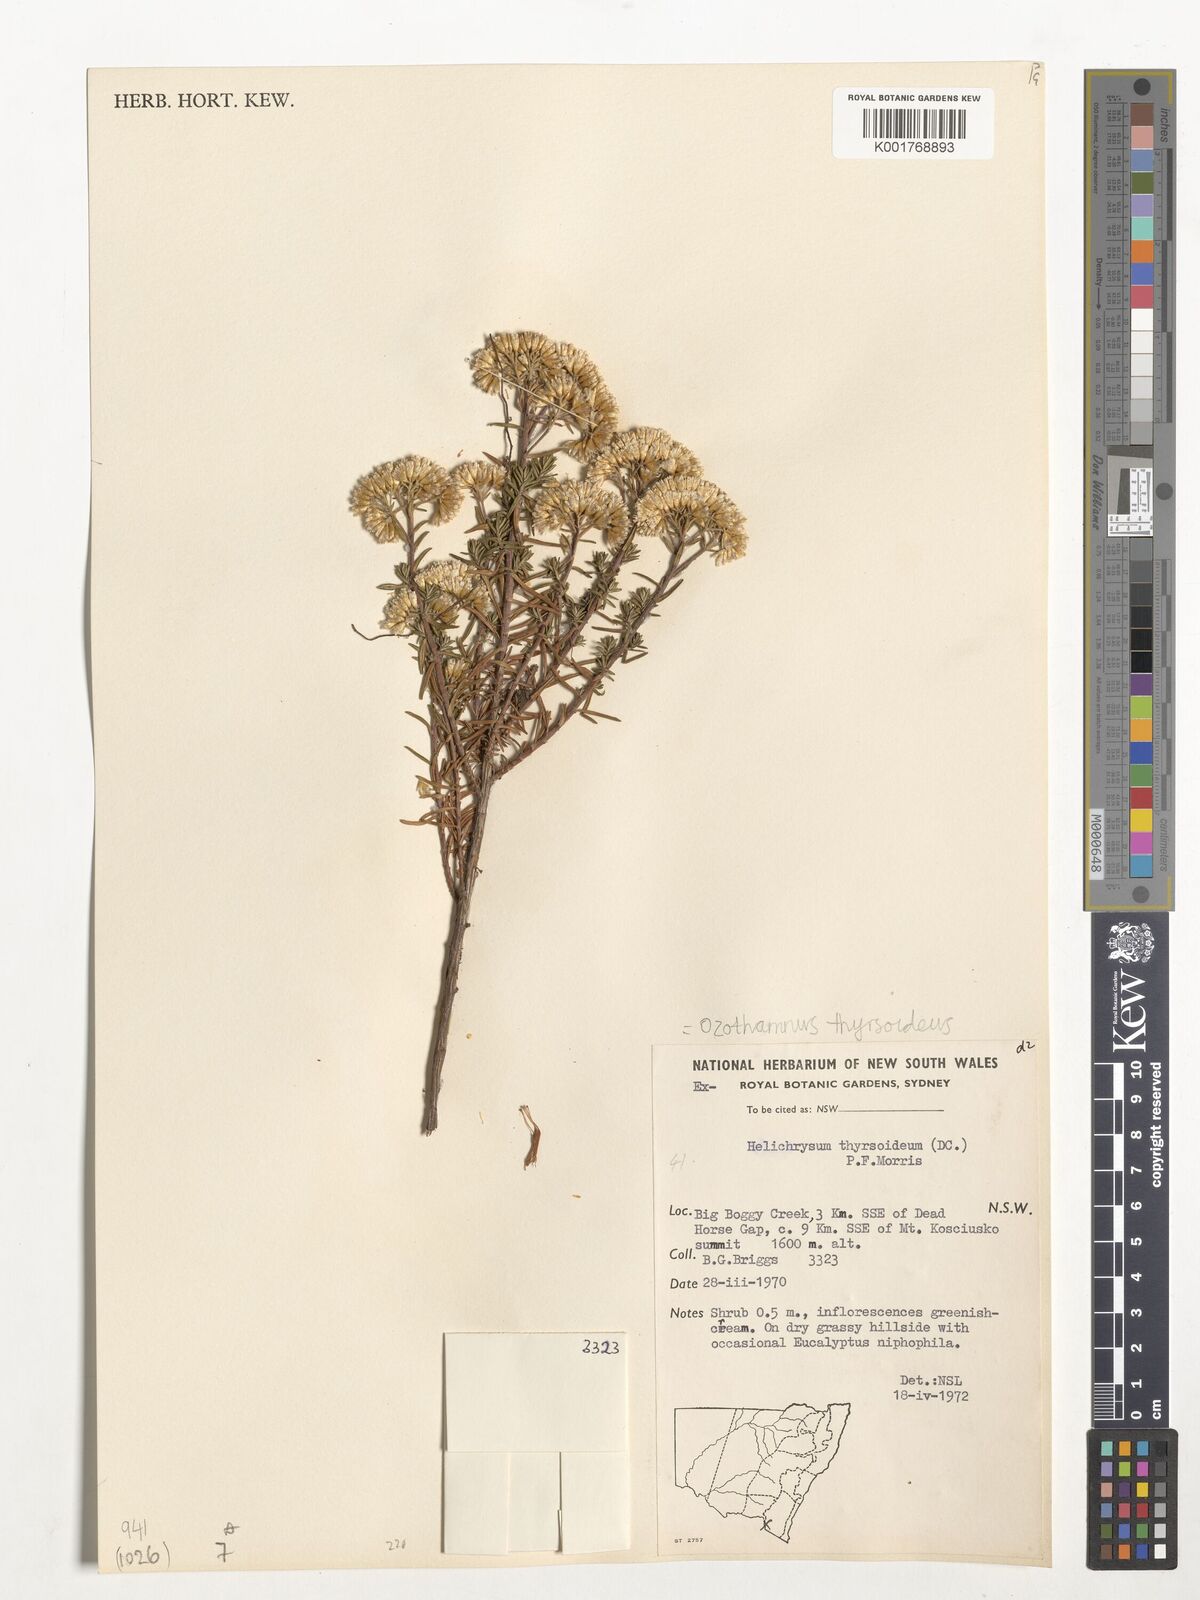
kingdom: Plantae
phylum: Tracheophyta
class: Magnoliopsida
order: Asterales
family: Asteraceae
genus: Ozothamnus
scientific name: Ozothamnus thyrsoideus
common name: Snow-in-summer
